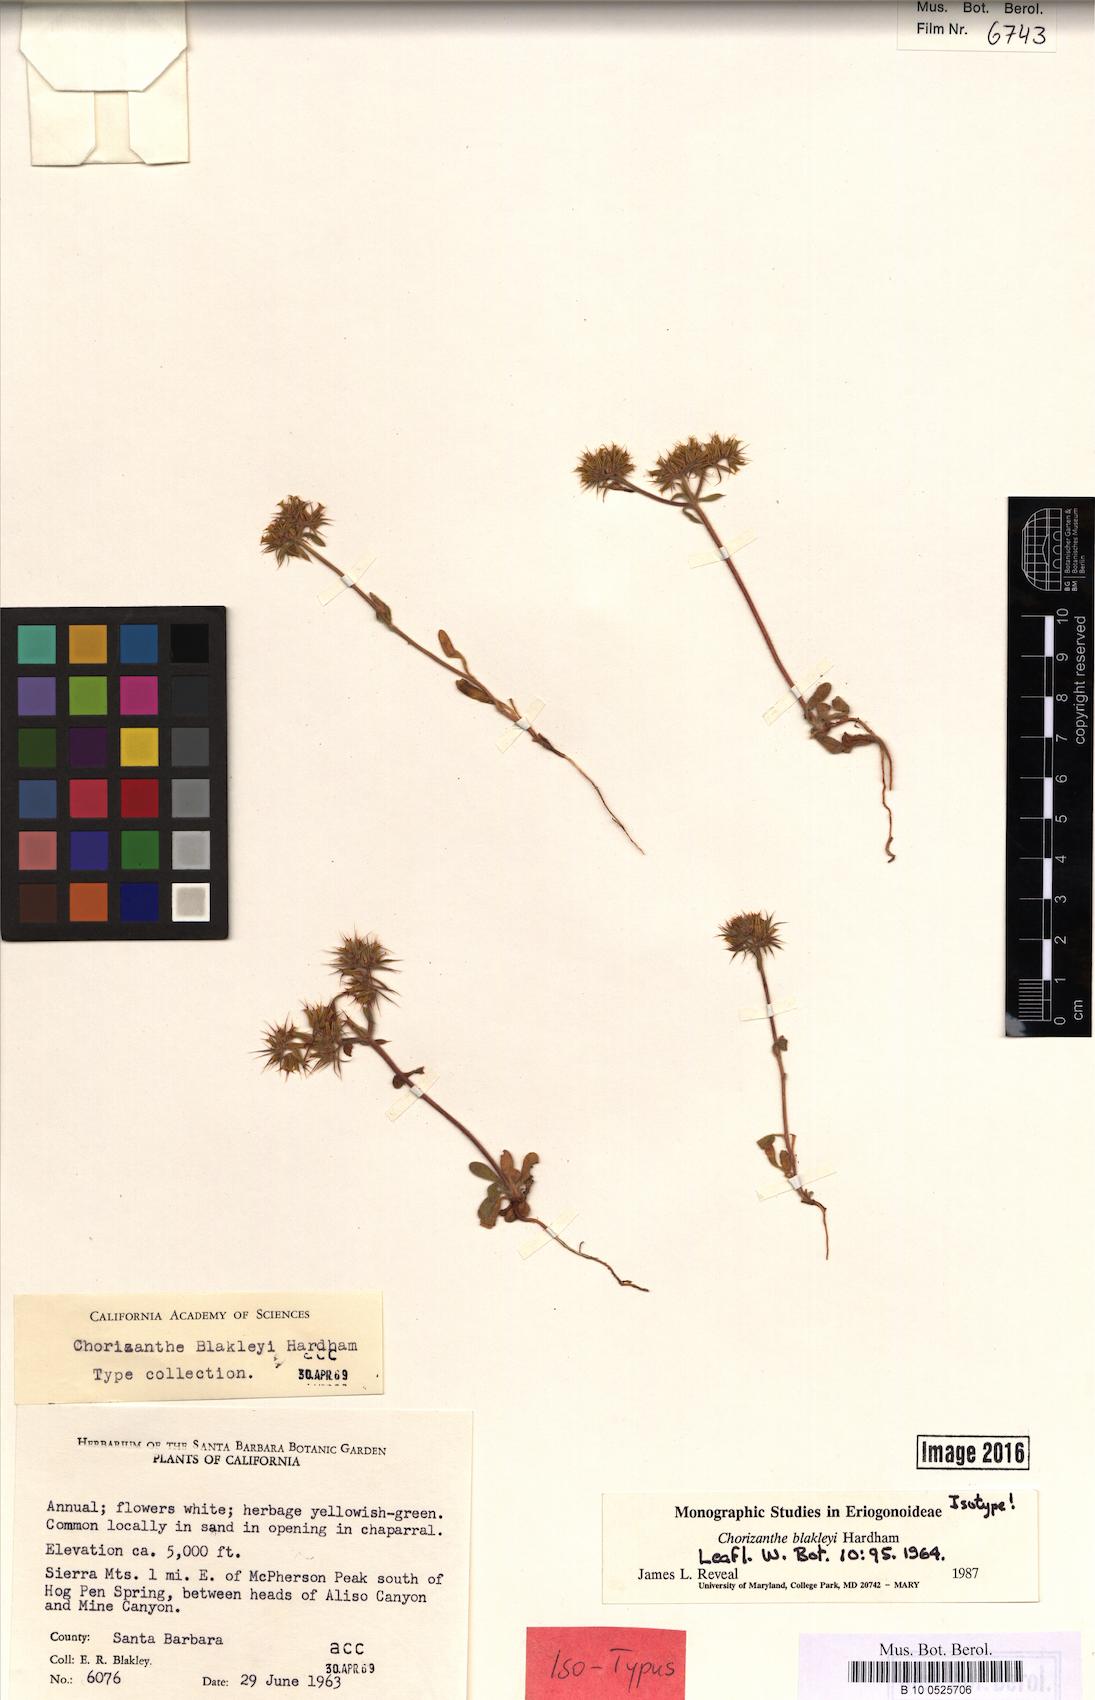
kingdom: Plantae
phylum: Tracheophyta
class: Magnoliopsida
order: Caryophyllales
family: Polygonaceae
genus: Chorizanthe
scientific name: Chorizanthe blakleyi
